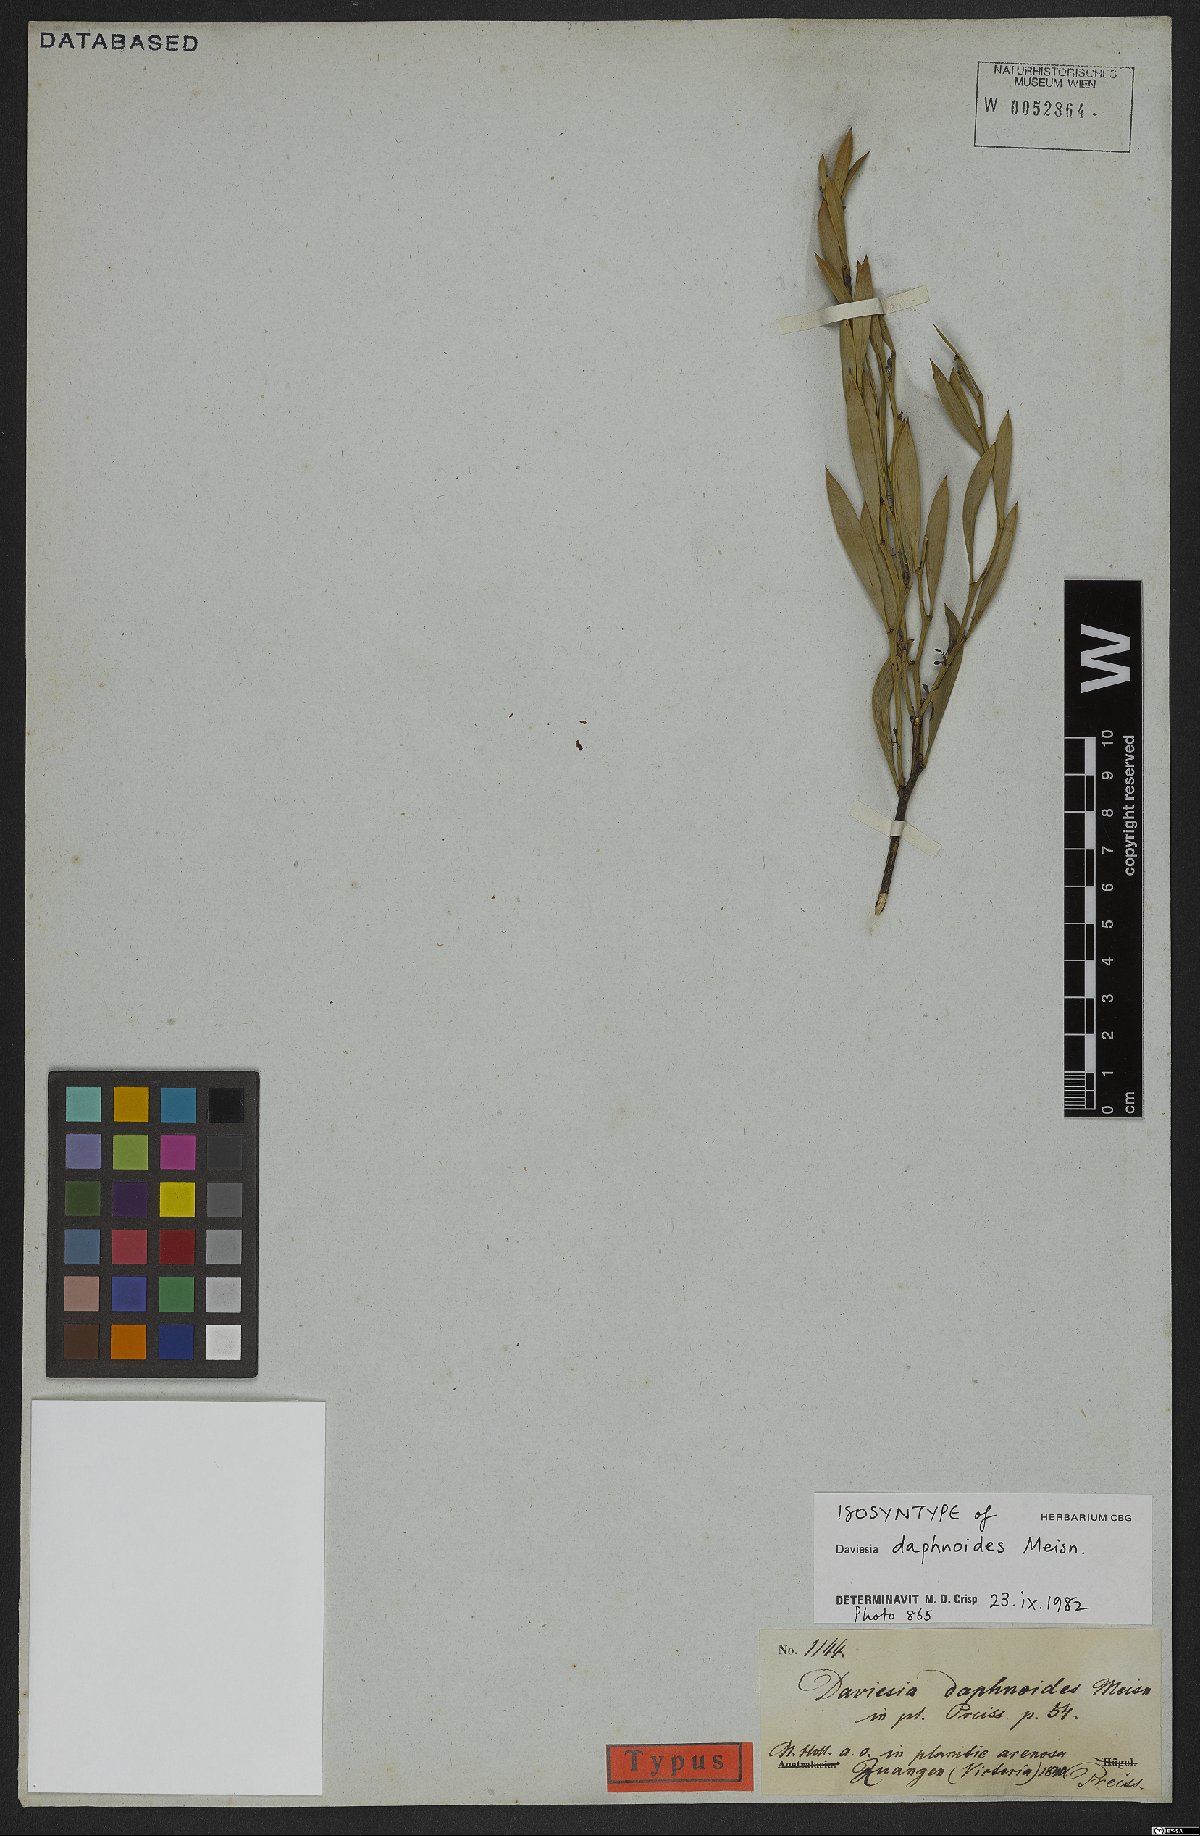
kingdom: Plantae
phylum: Tracheophyta
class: Magnoliopsida
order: Fabales
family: Fabaceae
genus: Daviesia
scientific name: Daviesia daphnoides
